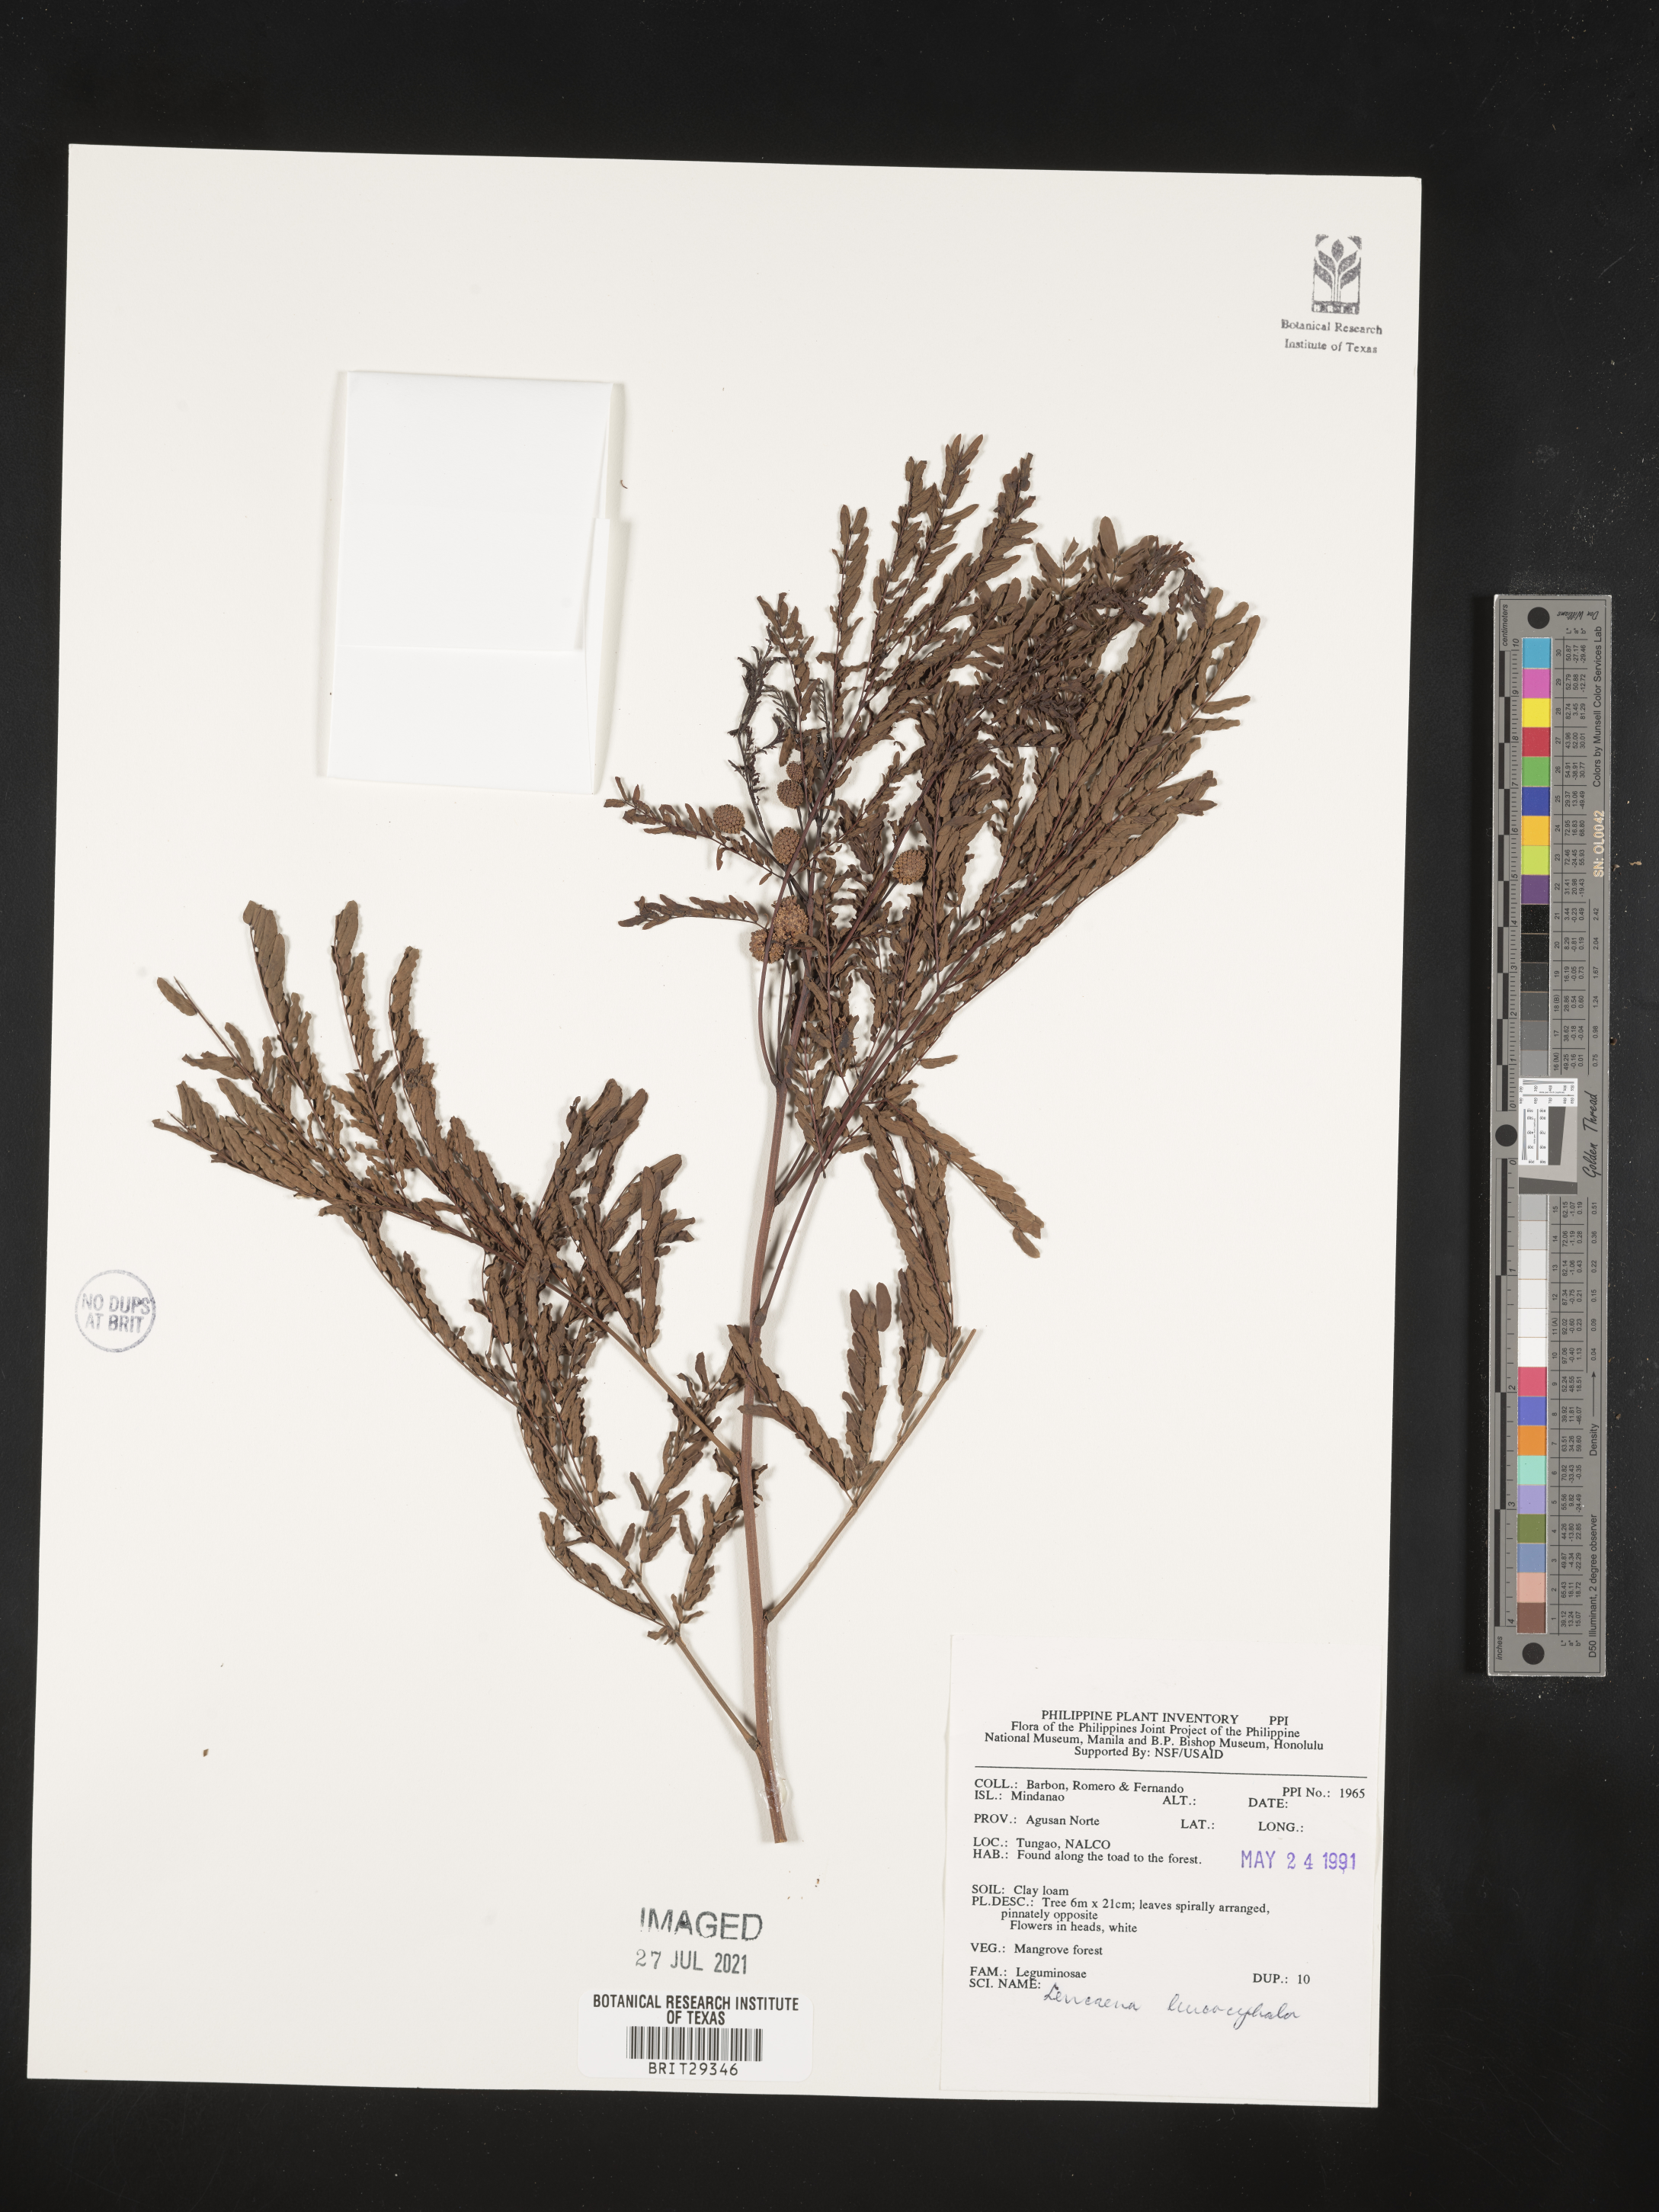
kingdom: Plantae
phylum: Tracheophyta
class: Magnoliopsida
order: Fabales
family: Fabaceae
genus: Leucaena
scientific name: Leucaena leucocephala
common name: White leadtree
